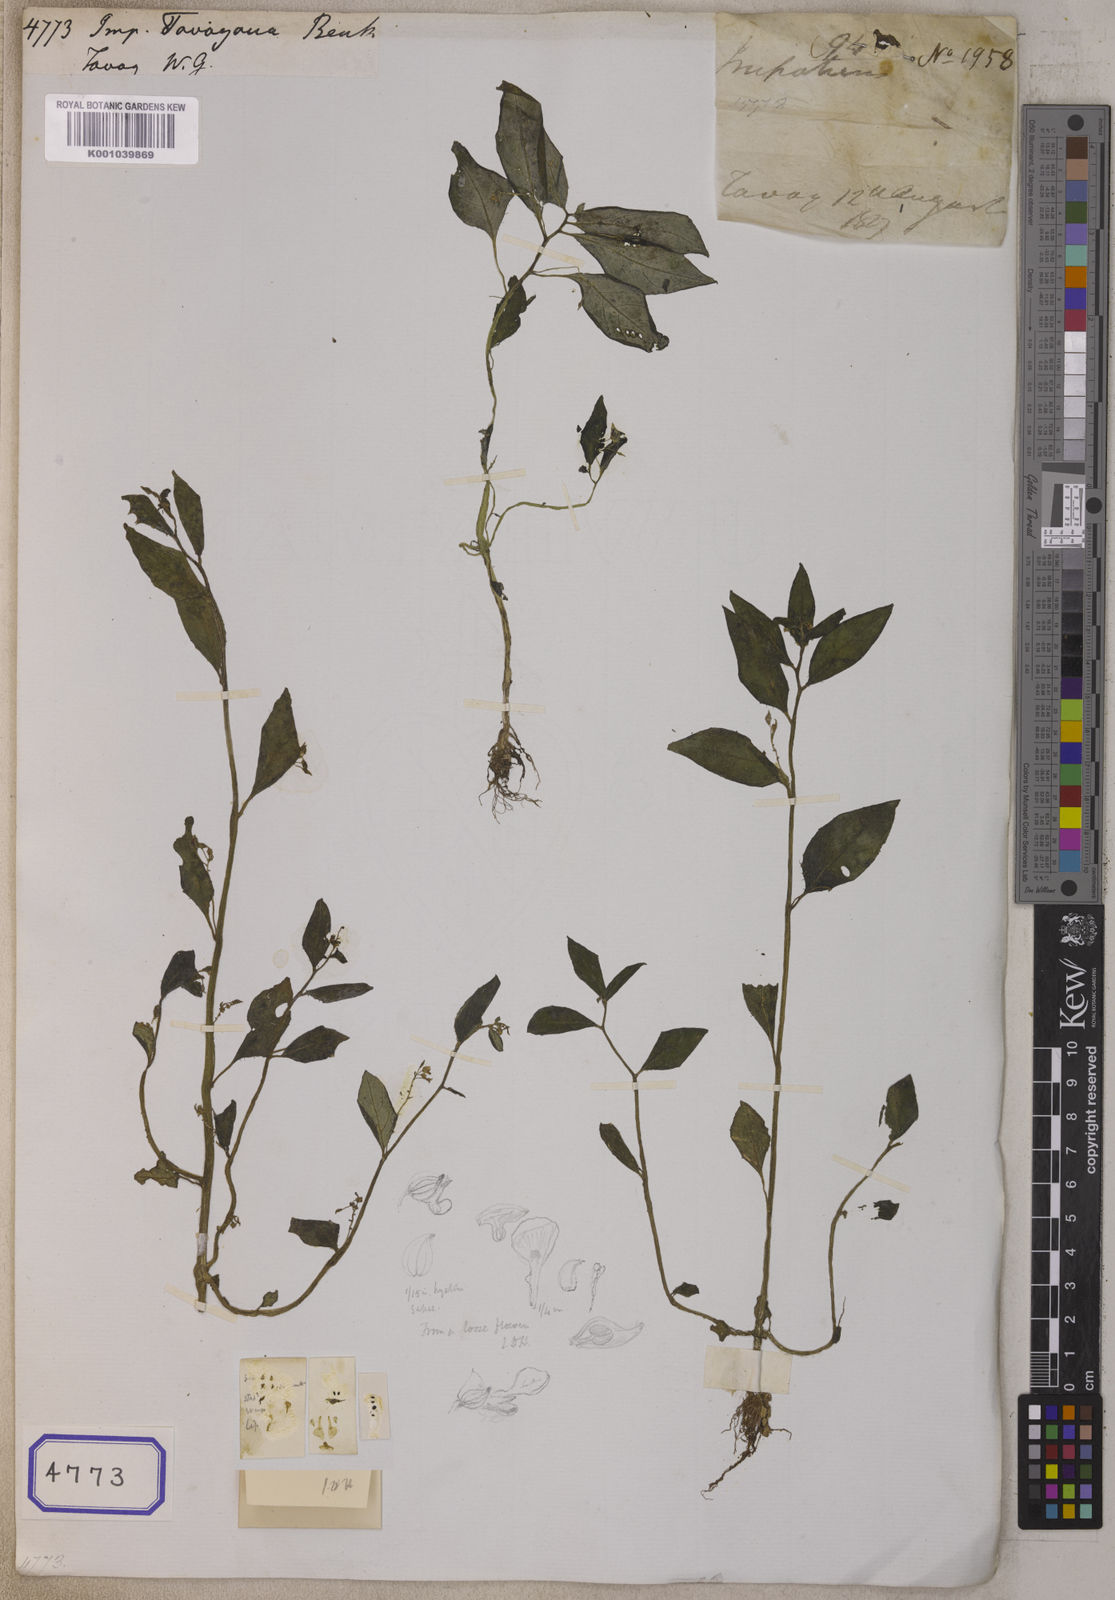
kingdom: Plantae
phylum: Tracheophyta
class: Magnoliopsida
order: Ericales
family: Balsaminaceae
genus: Impatiens
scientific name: Impatiens
